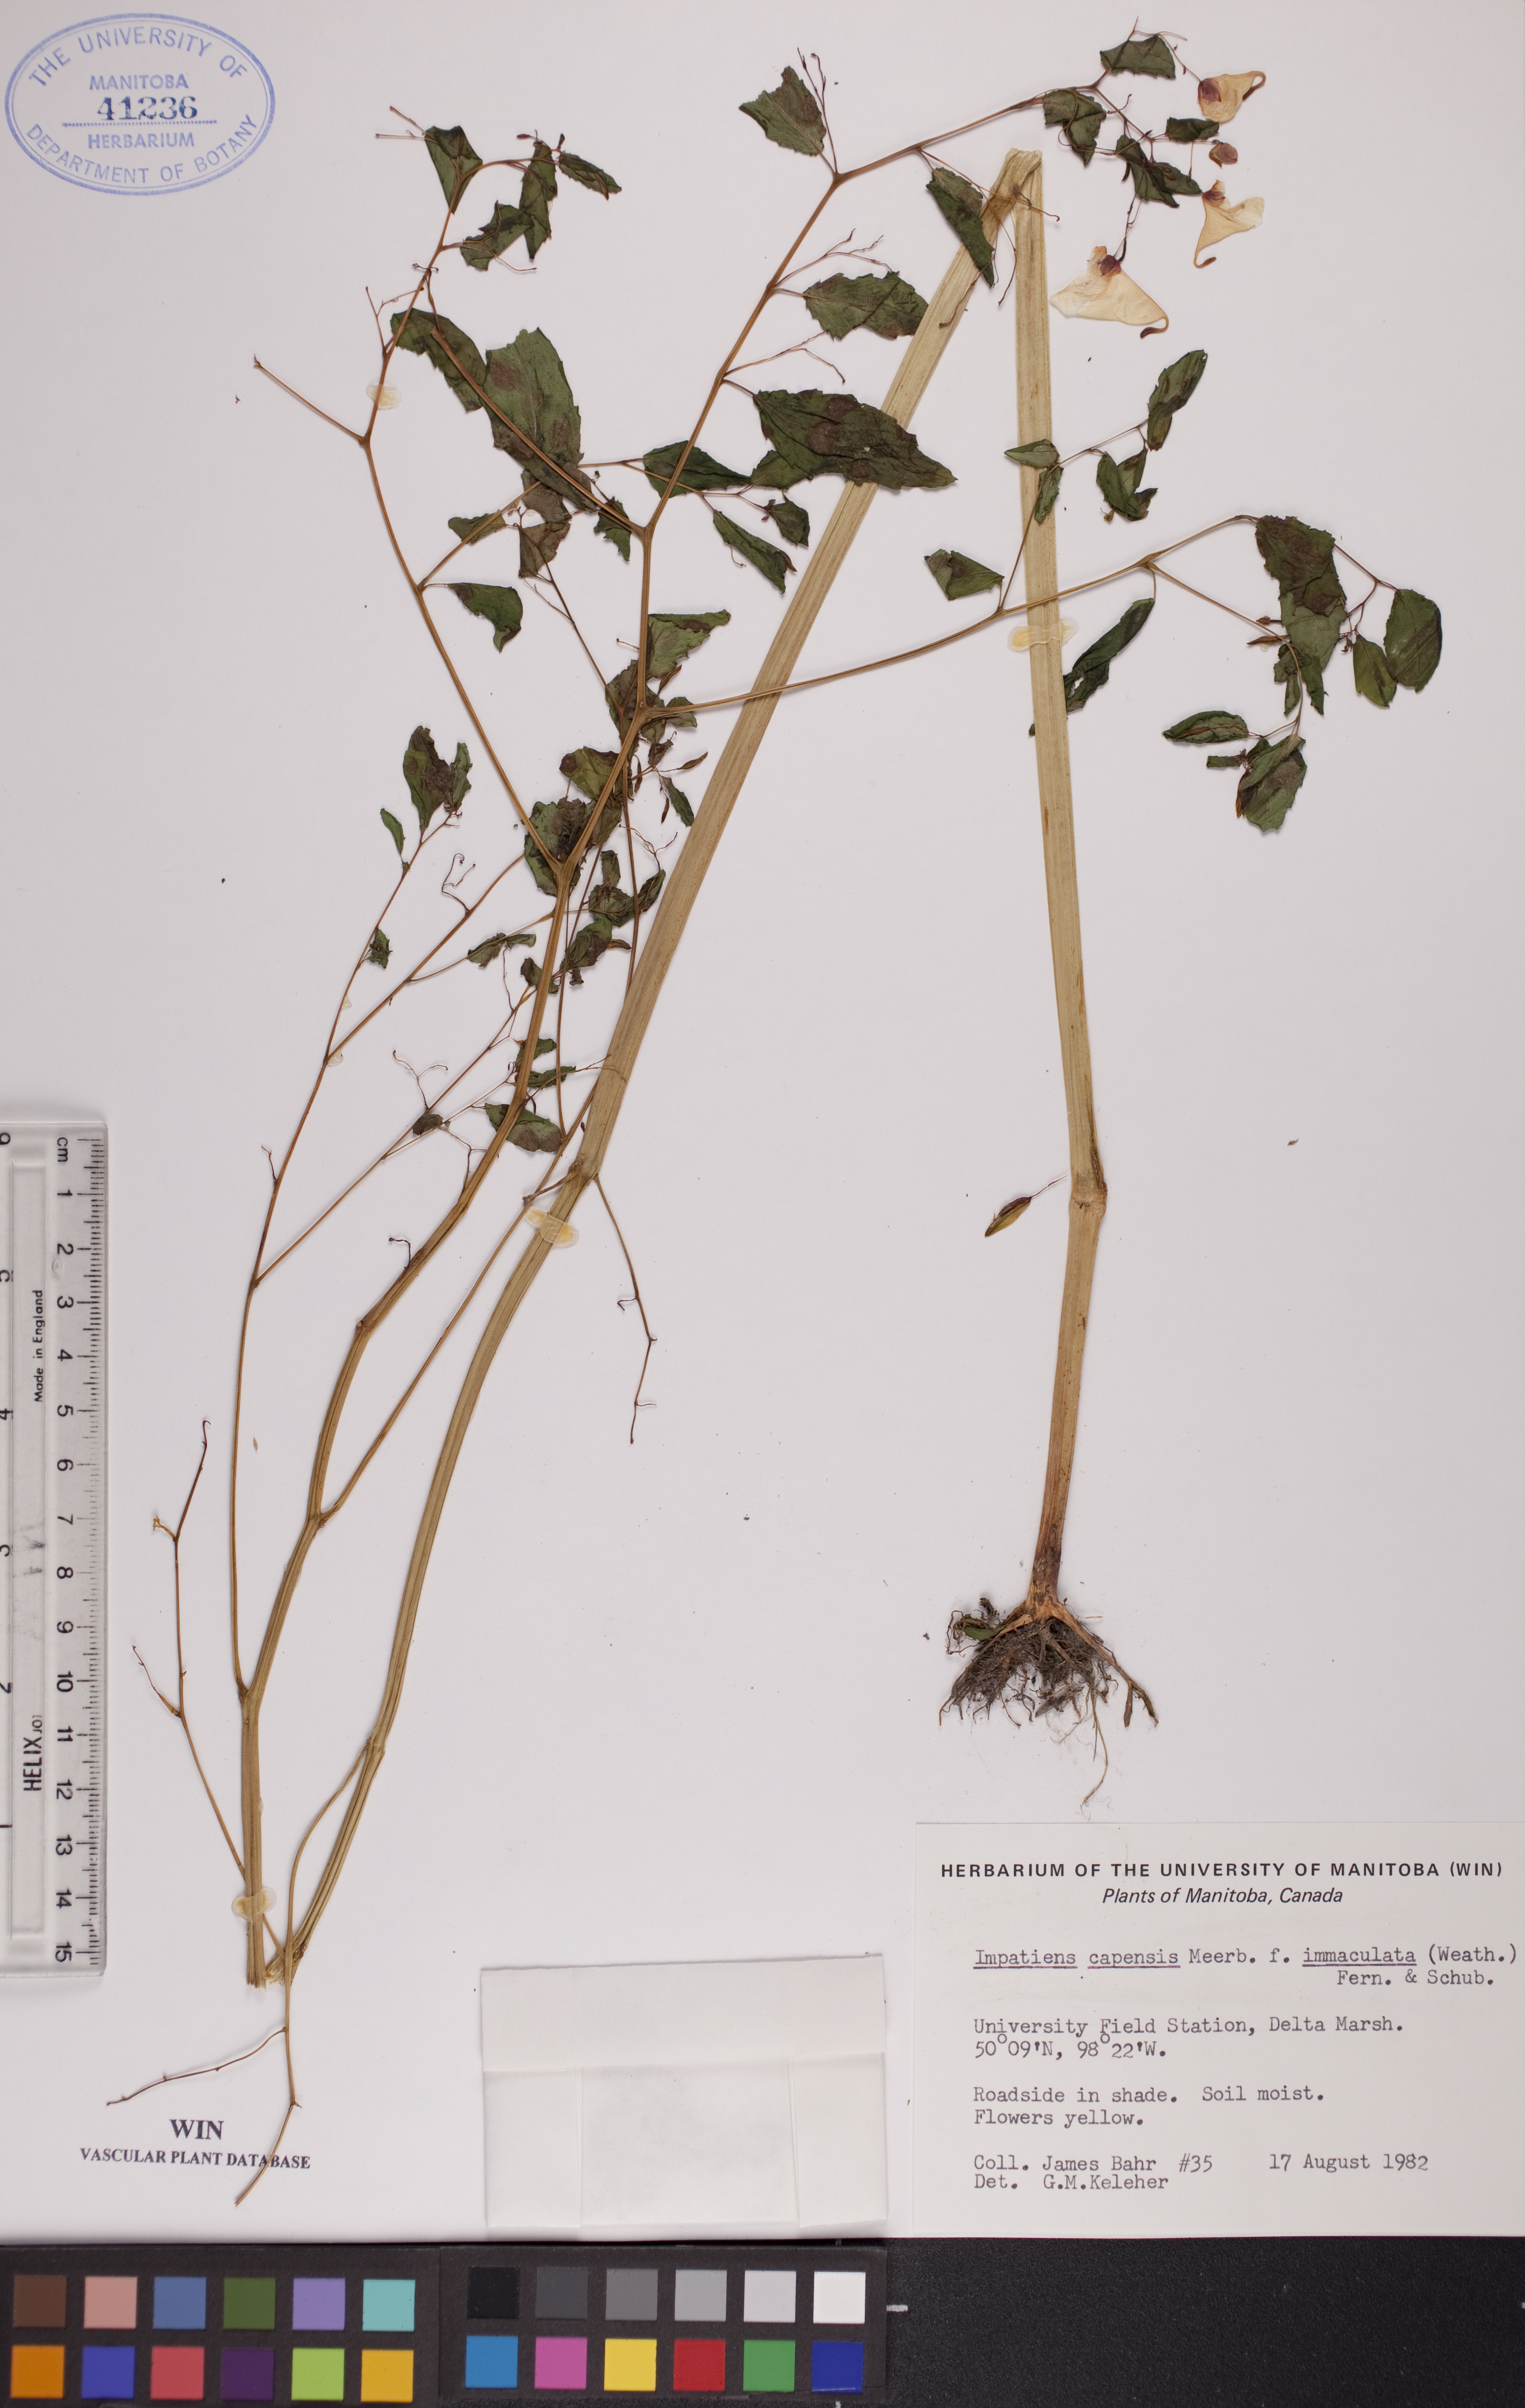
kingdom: Plantae
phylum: Tracheophyta
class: Magnoliopsida
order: Ericales
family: Balsaminaceae
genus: Impatiens
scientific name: Impatiens capensis
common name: Orange balsam
